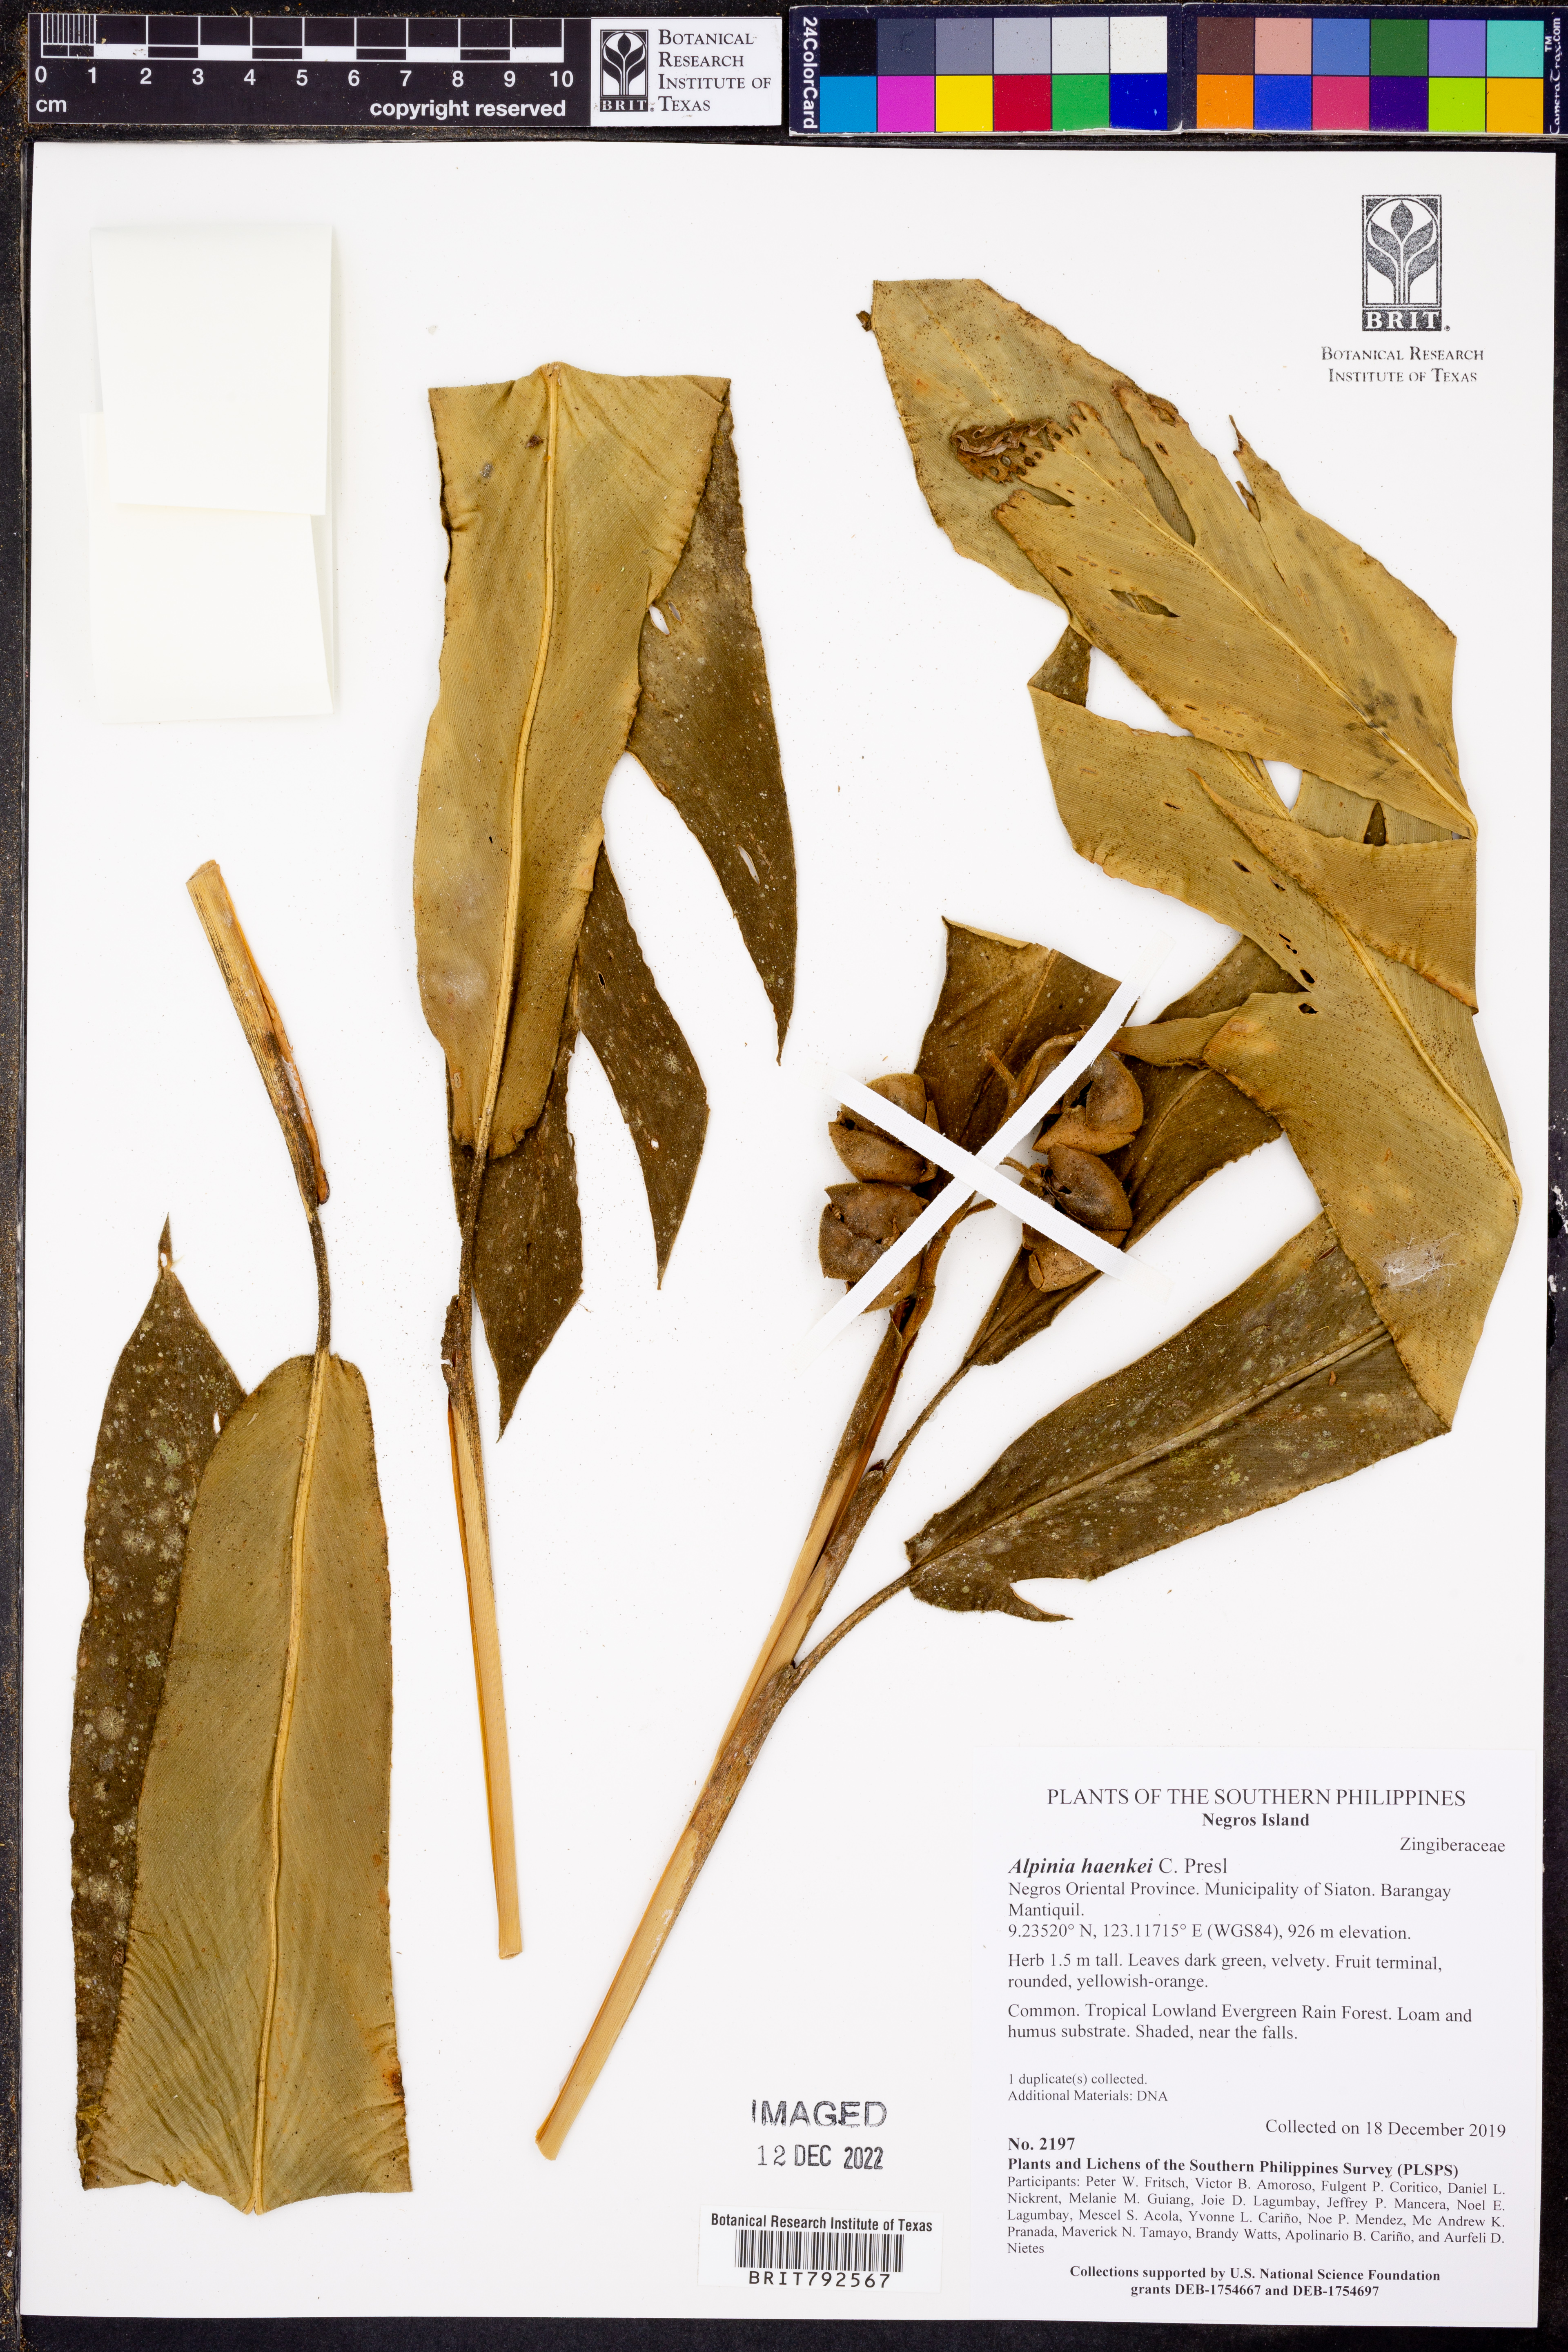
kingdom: Plantae
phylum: Tracheophyta
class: Liliopsida
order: Zingiberales
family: Zingiberaceae
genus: Alpinia
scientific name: Alpinia haenkei
